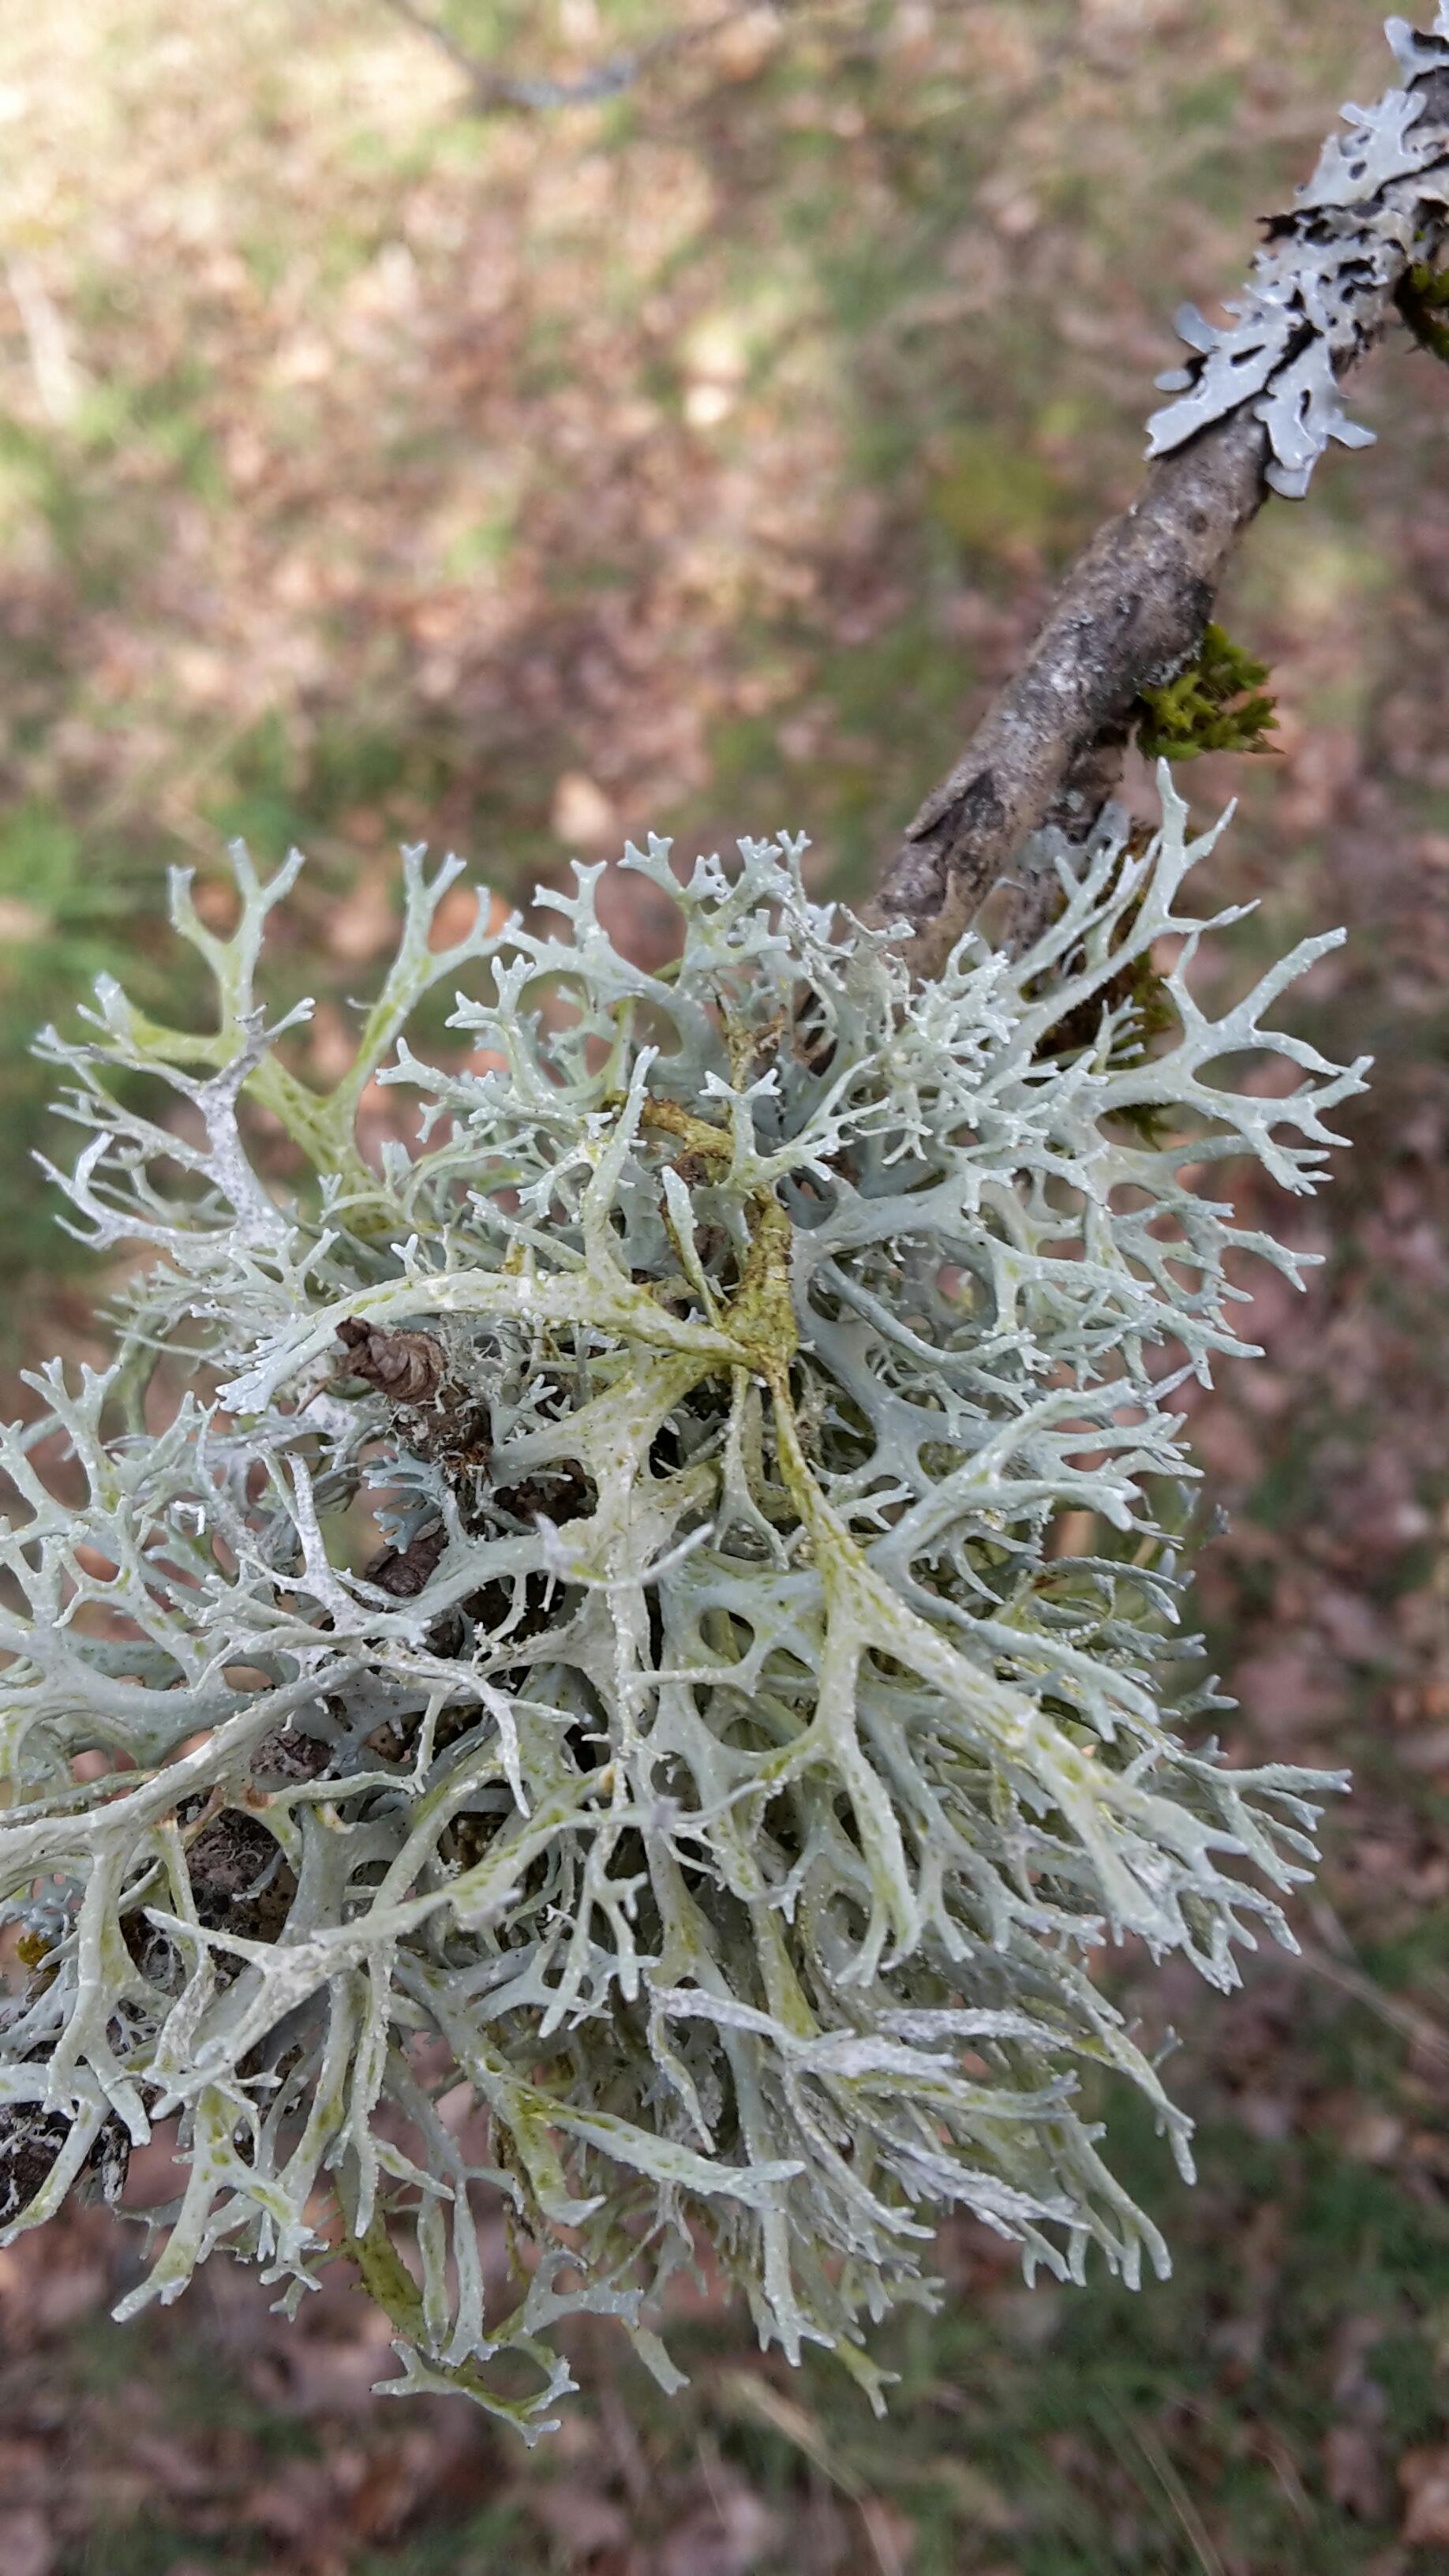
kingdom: Fungi
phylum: Ascomycota
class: Lecanoromycetes
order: Lecanorales
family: Parmeliaceae
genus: Evernia
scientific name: Evernia prunastri
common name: almindelig slåenlav
